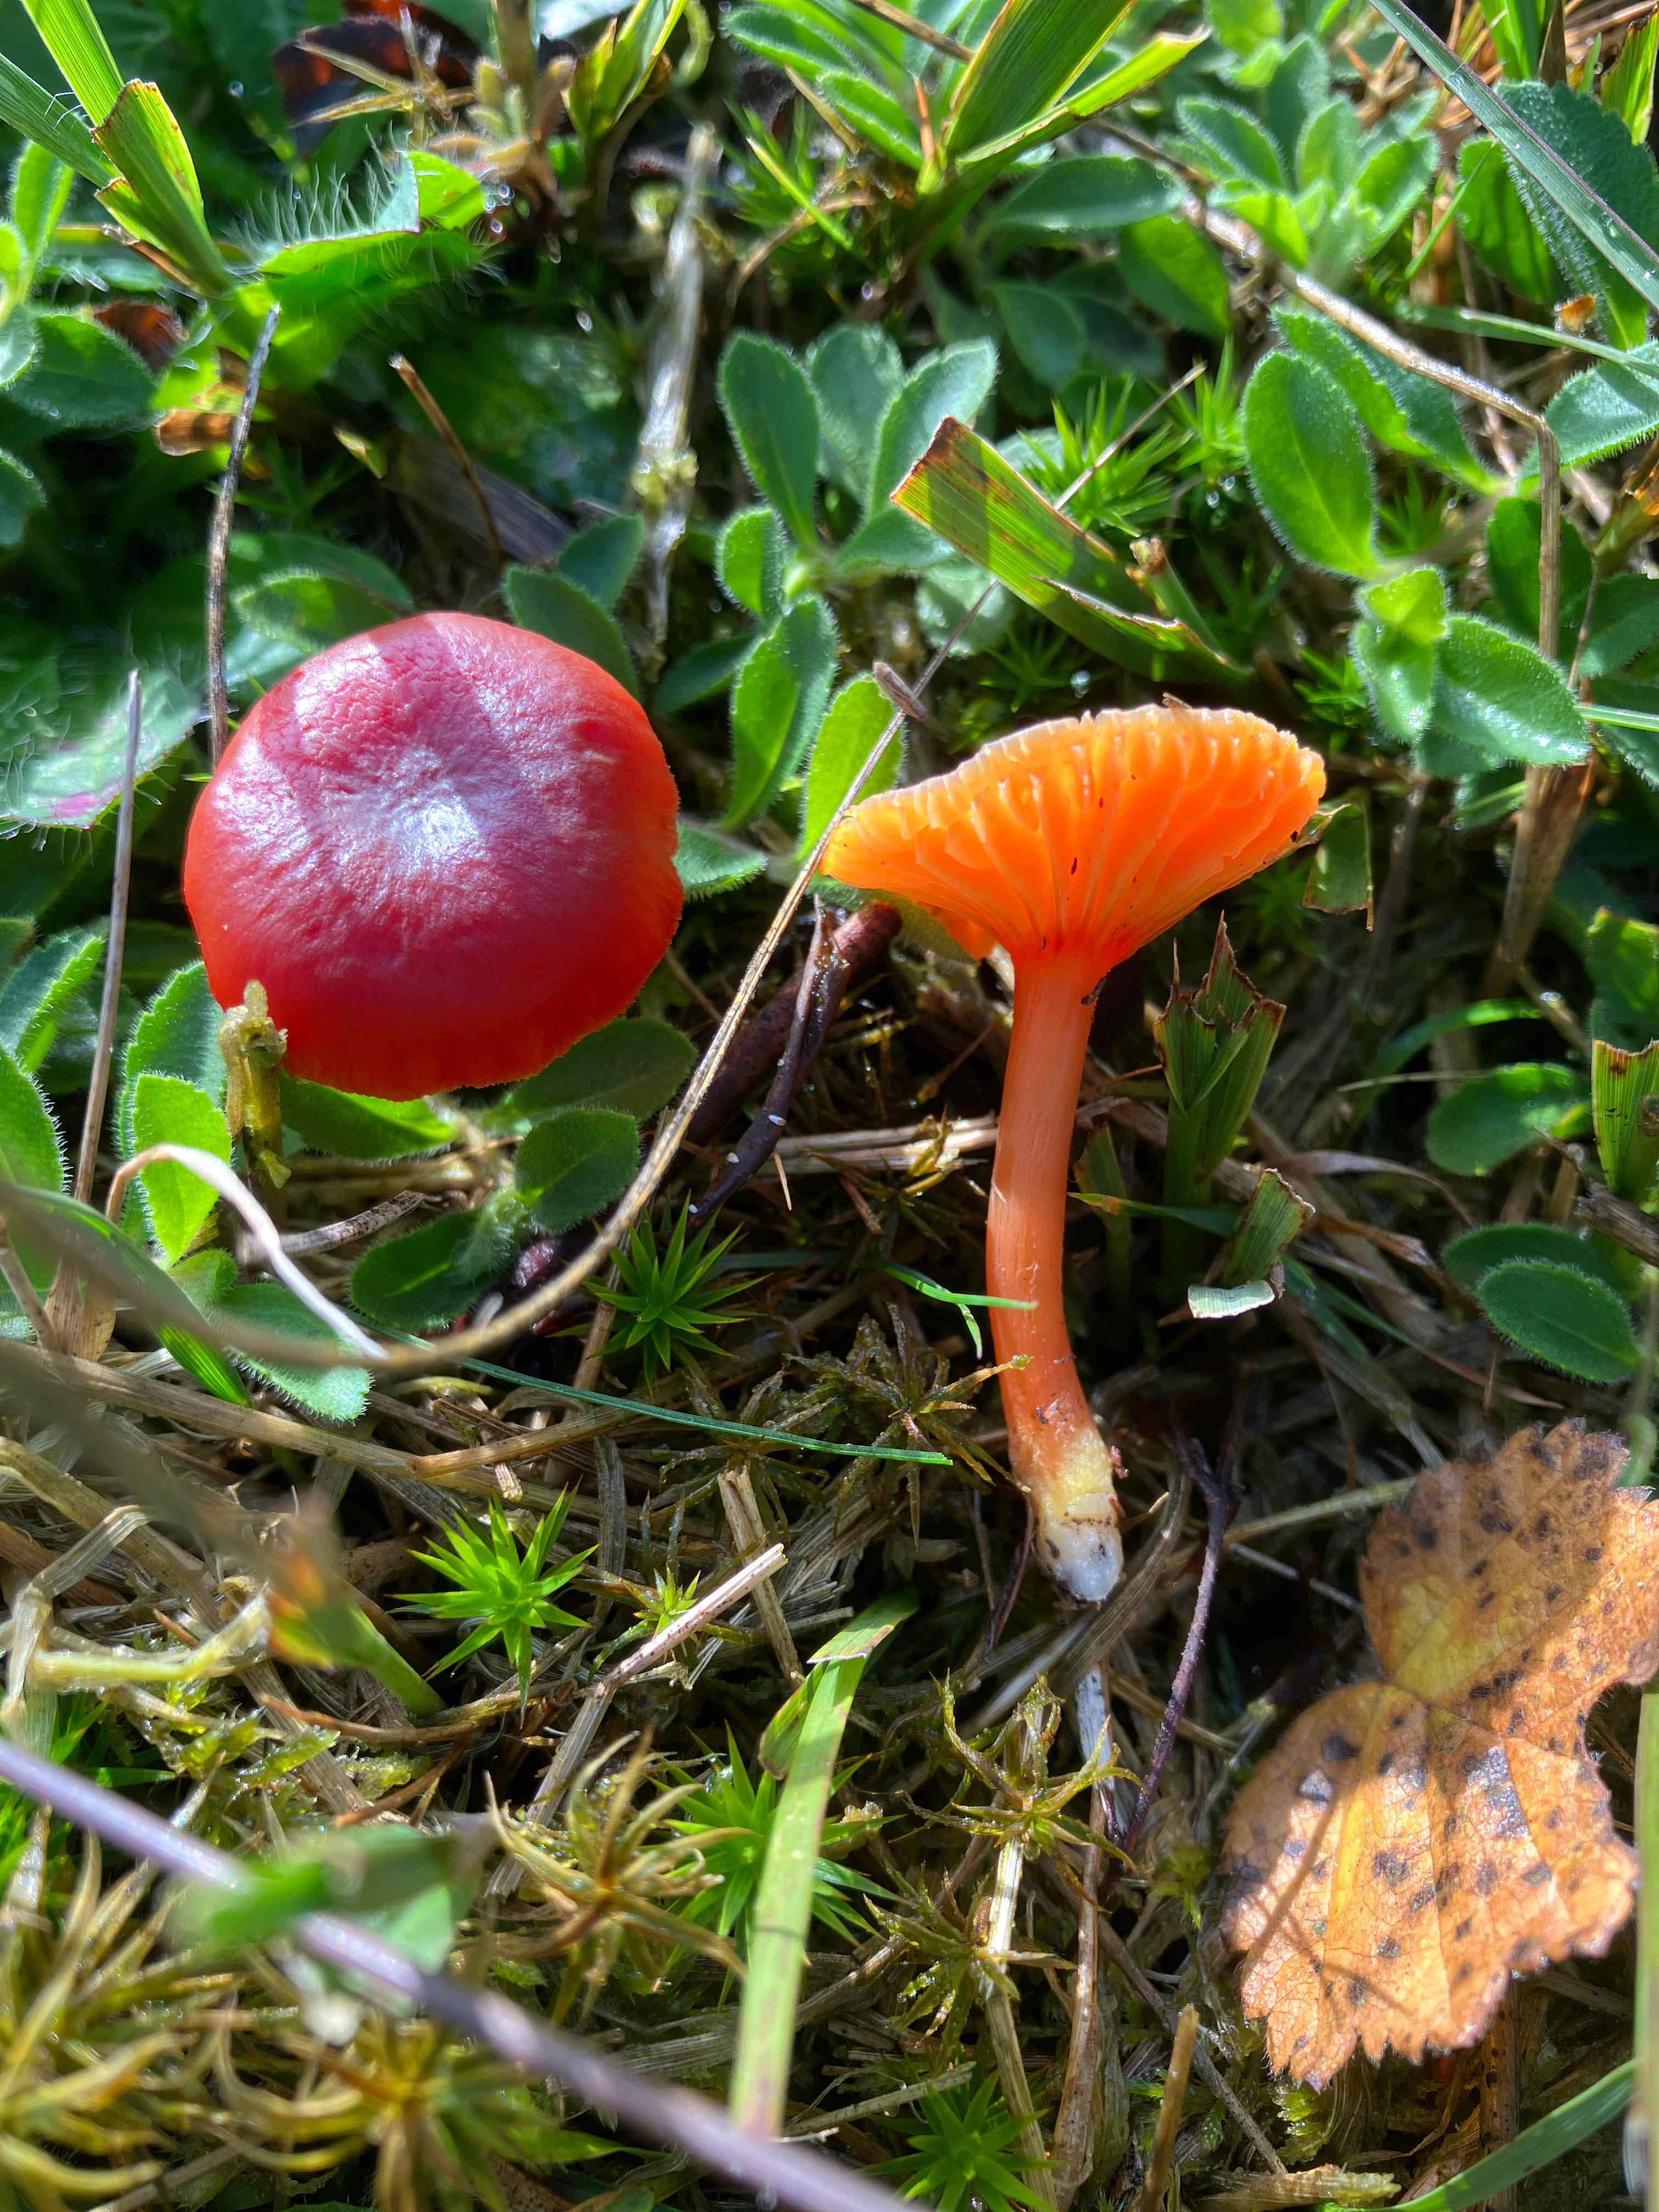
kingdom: Fungi
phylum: Basidiomycota
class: Agaricomycetes
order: Agaricales
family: Hygrophoraceae
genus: Hygrocybe
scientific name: Hygrocybe phaeococcinea
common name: sortdugget vokshat
